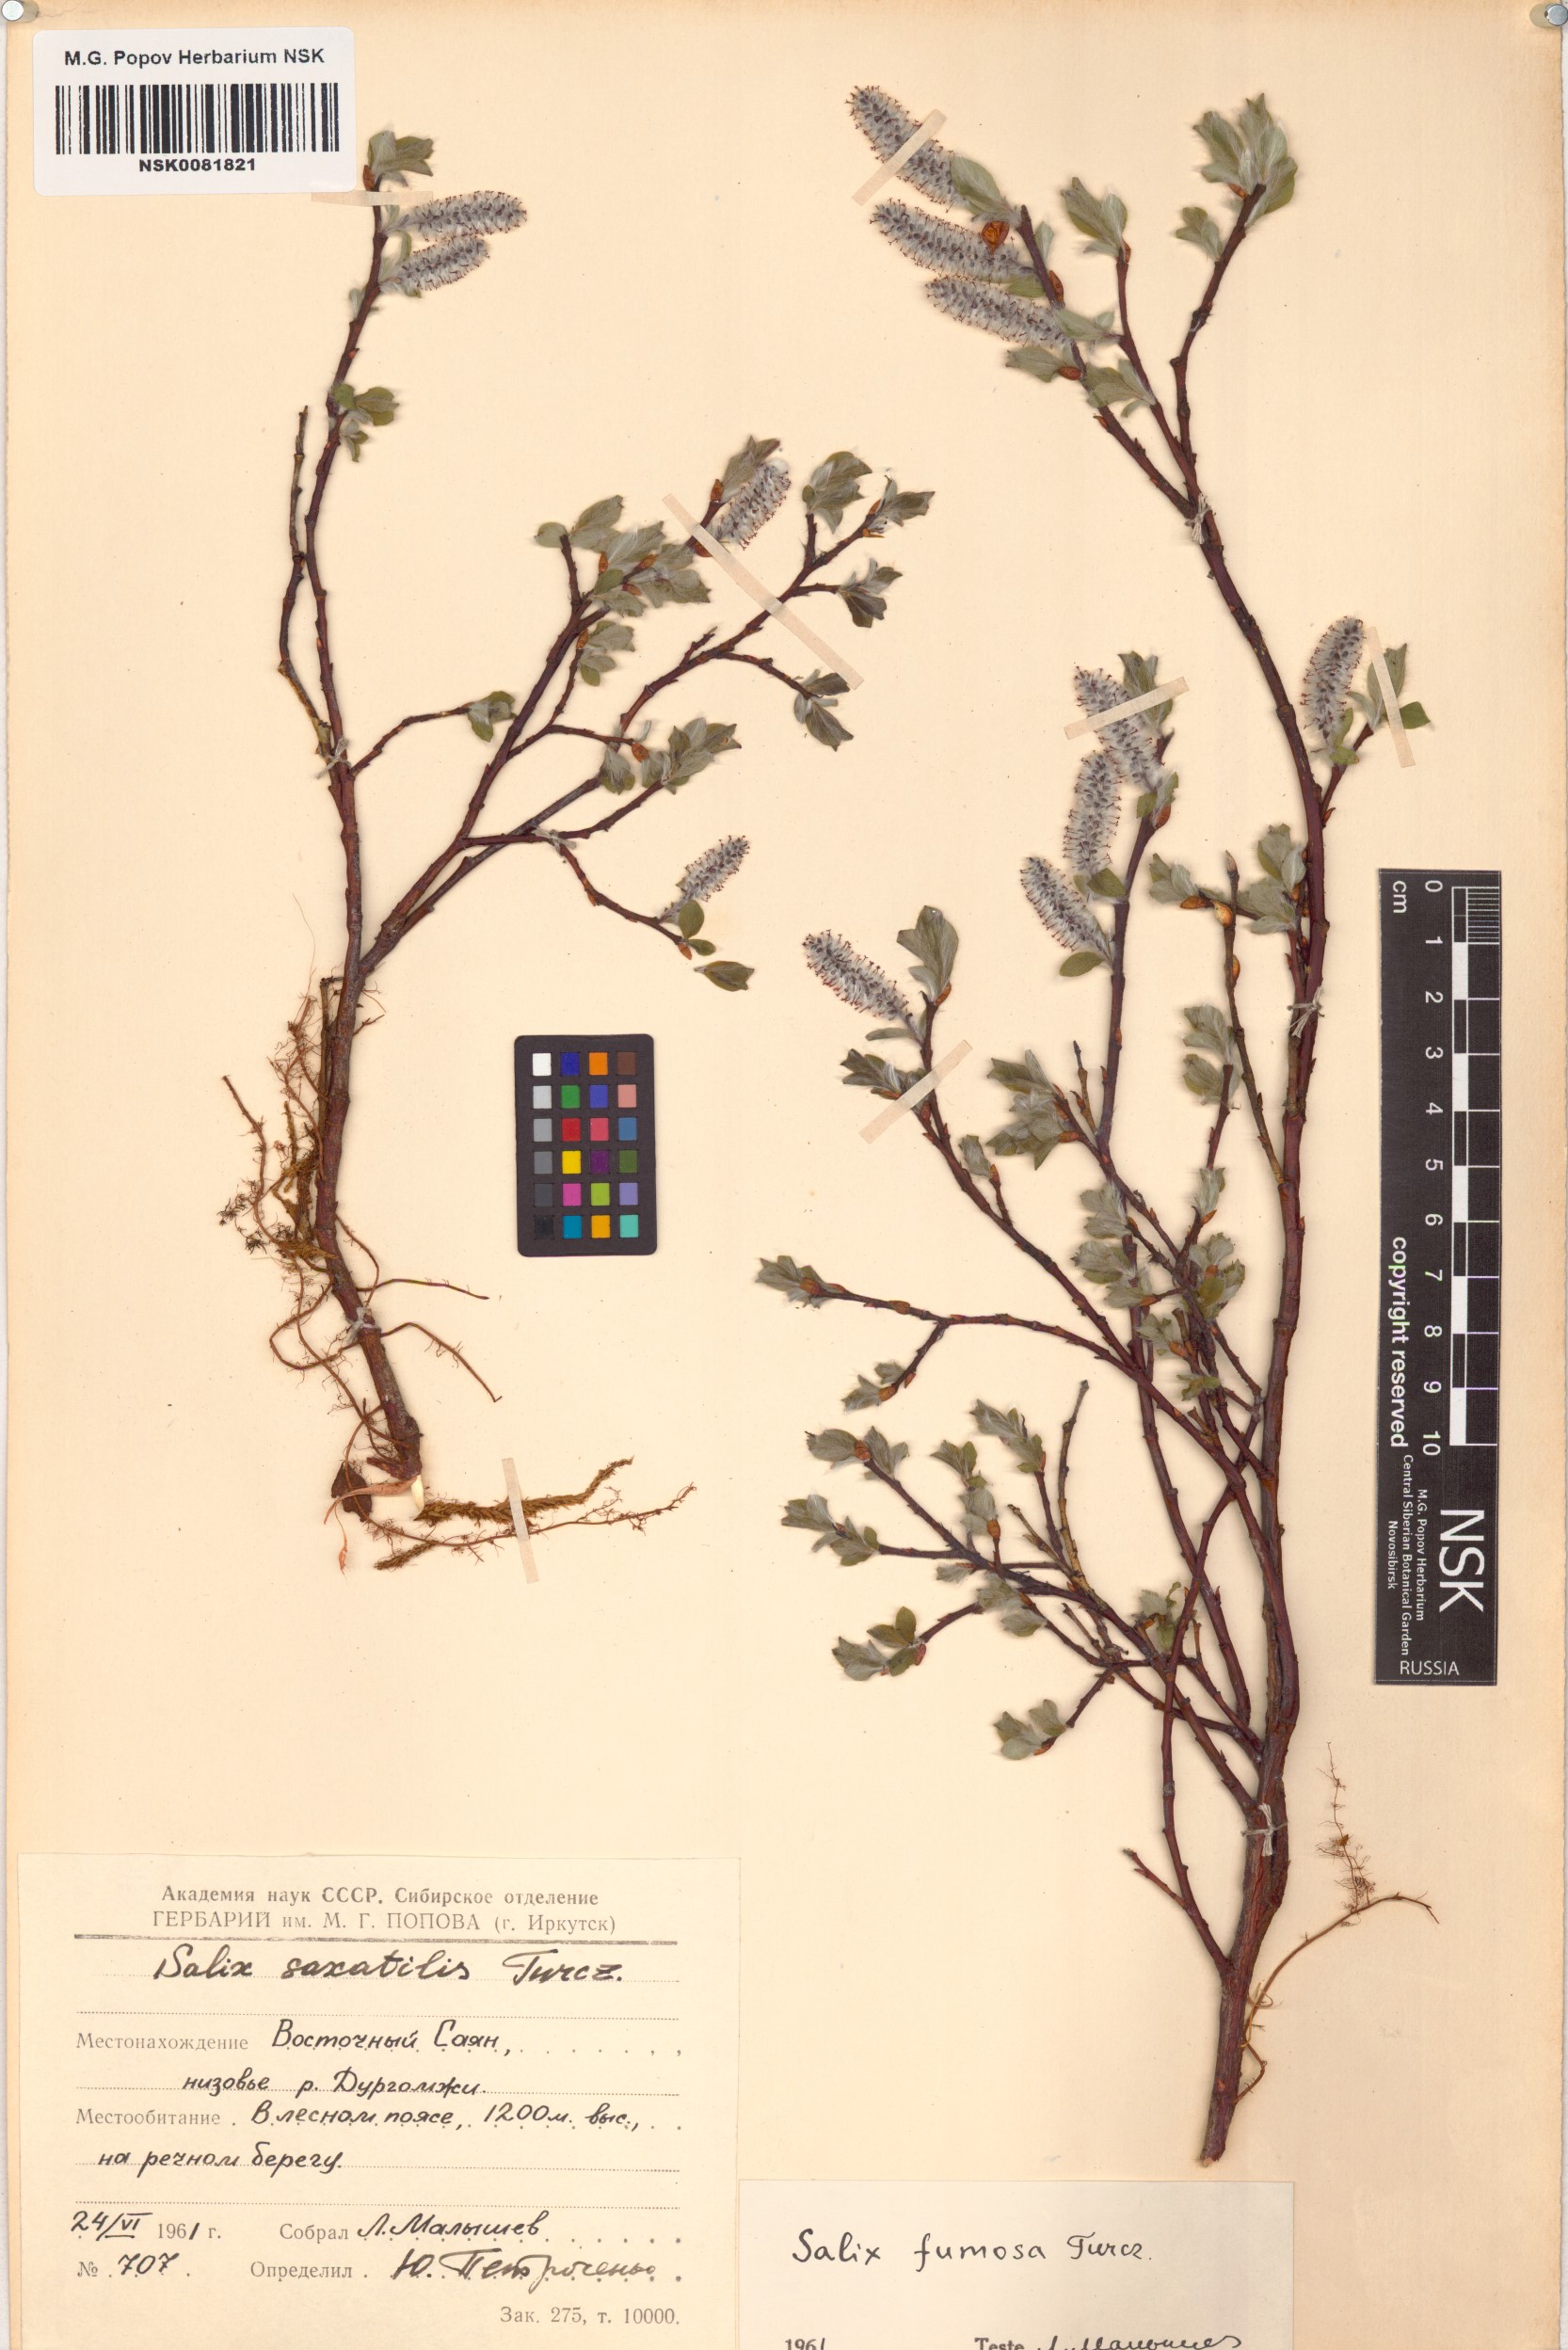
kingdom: Plantae
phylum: Tracheophyta
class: Magnoliopsida
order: Malpighiales
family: Salicaceae
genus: Salix
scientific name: Salix saxatilis
